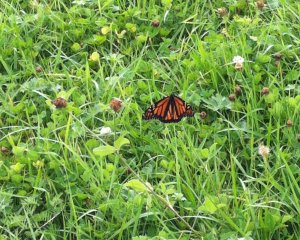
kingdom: Animalia
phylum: Arthropoda
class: Insecta
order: Lepidoptera
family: Nymphalidae
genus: Danaus
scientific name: Danaus plexippus
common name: Monarch
